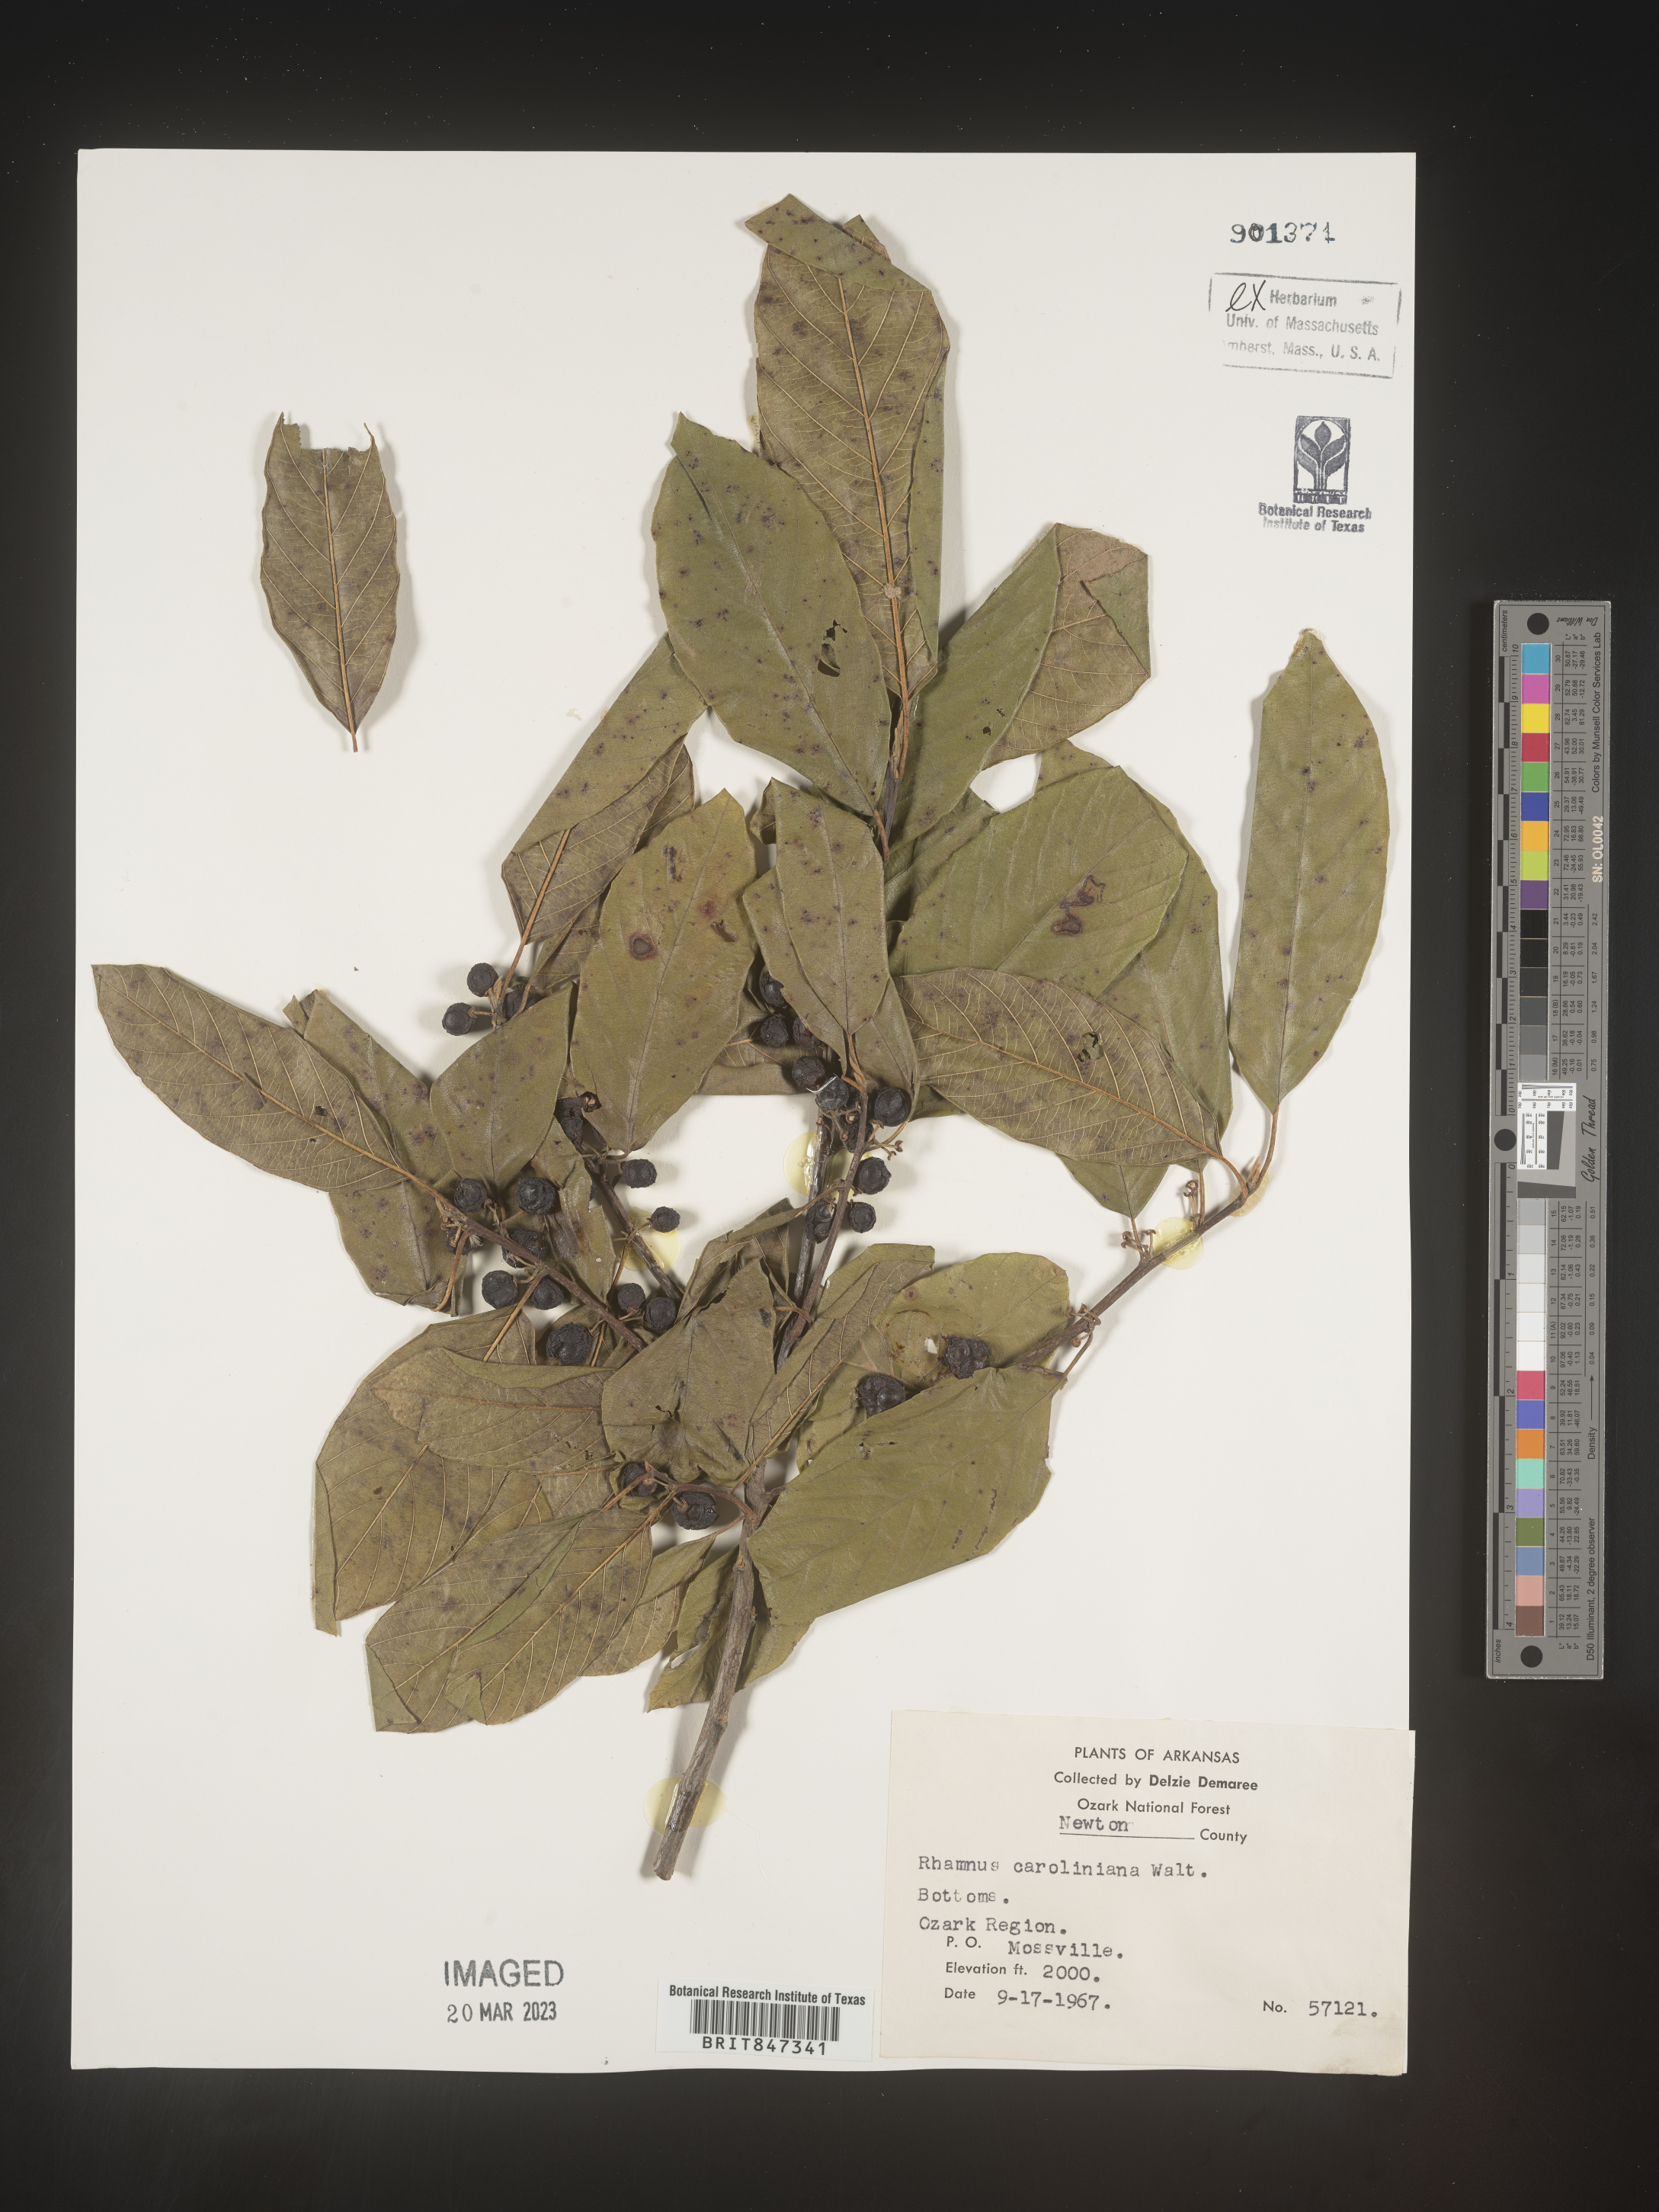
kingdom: Plantae
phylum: Tracheophyta
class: Magnoliopsida
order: Rosales
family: Rhamnaceae
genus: Frangula
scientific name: Frangula caroliniana
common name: Carolina buckthorn
